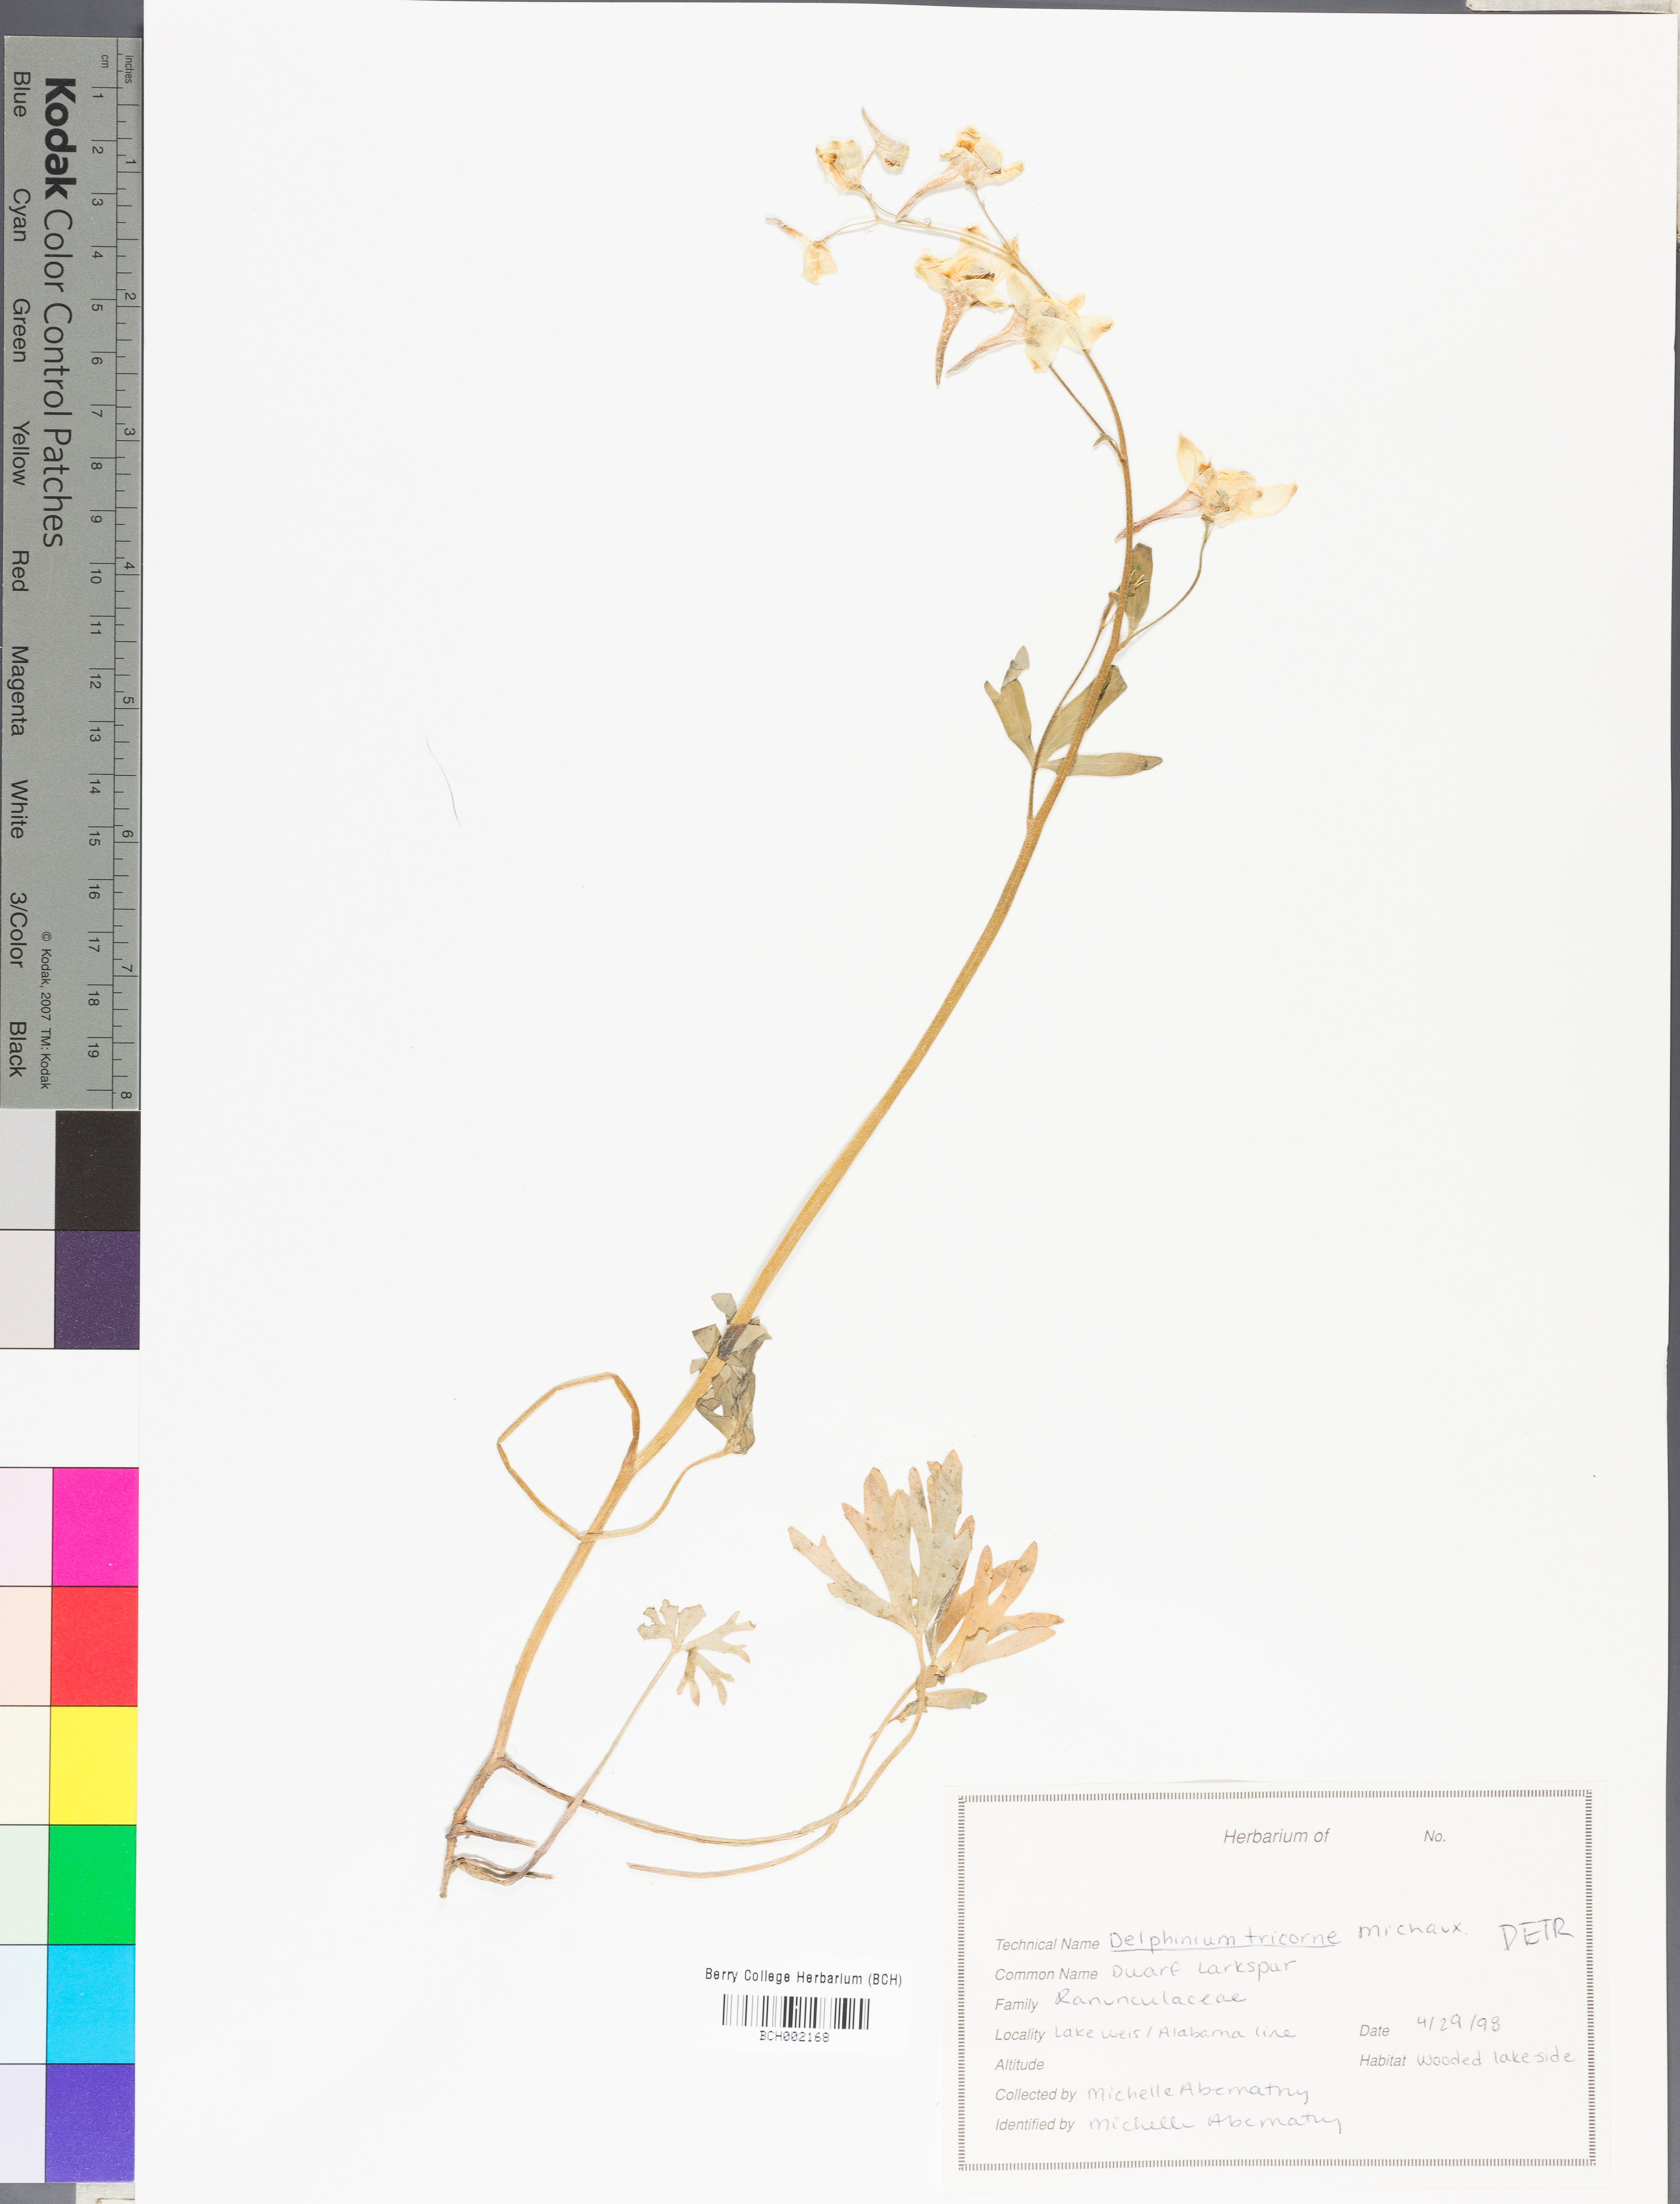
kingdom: Plantae
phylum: Tracheophyta
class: Magnoliopsida
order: Ranunculales
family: Ranunculaceae
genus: Delphinium
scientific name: Delphinium tricorne
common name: Dwarf larkspur
